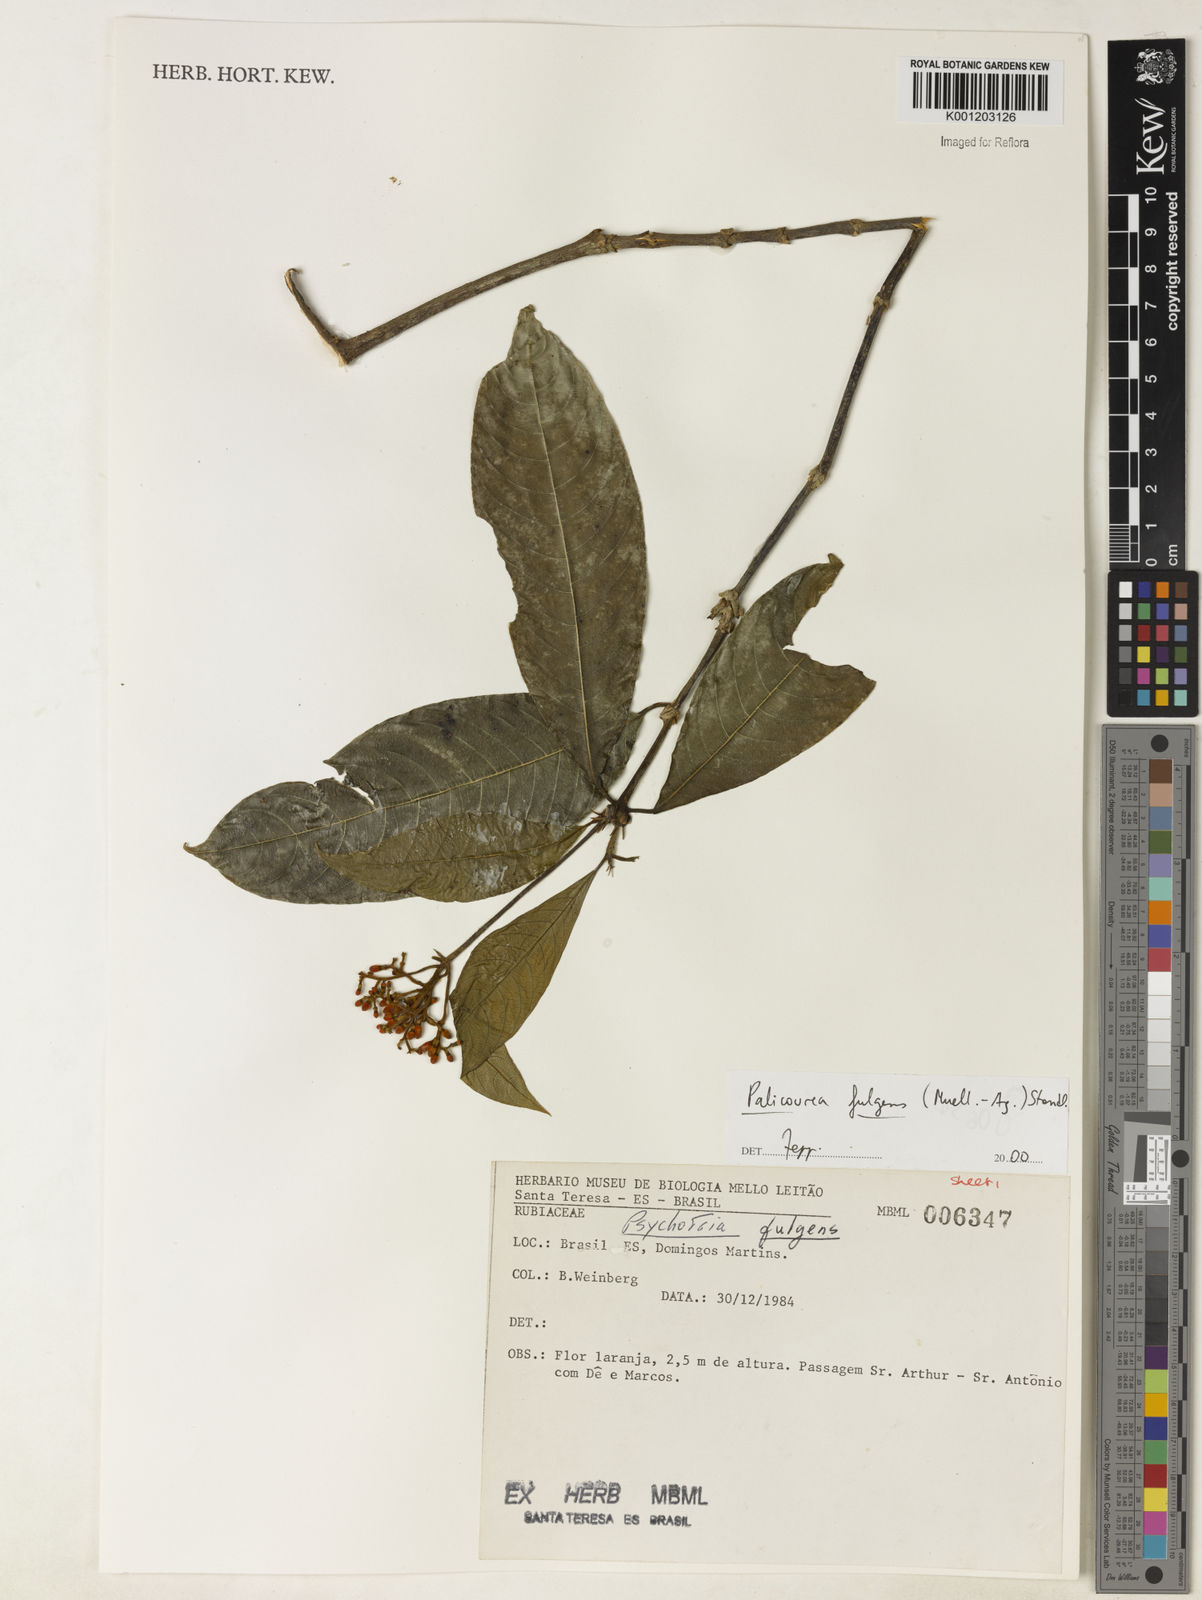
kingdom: Plantae
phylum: Tracheophyta
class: Magnoliopsida
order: Gentianales
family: Rubiaceae
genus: Palicourea
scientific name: Palicourea
